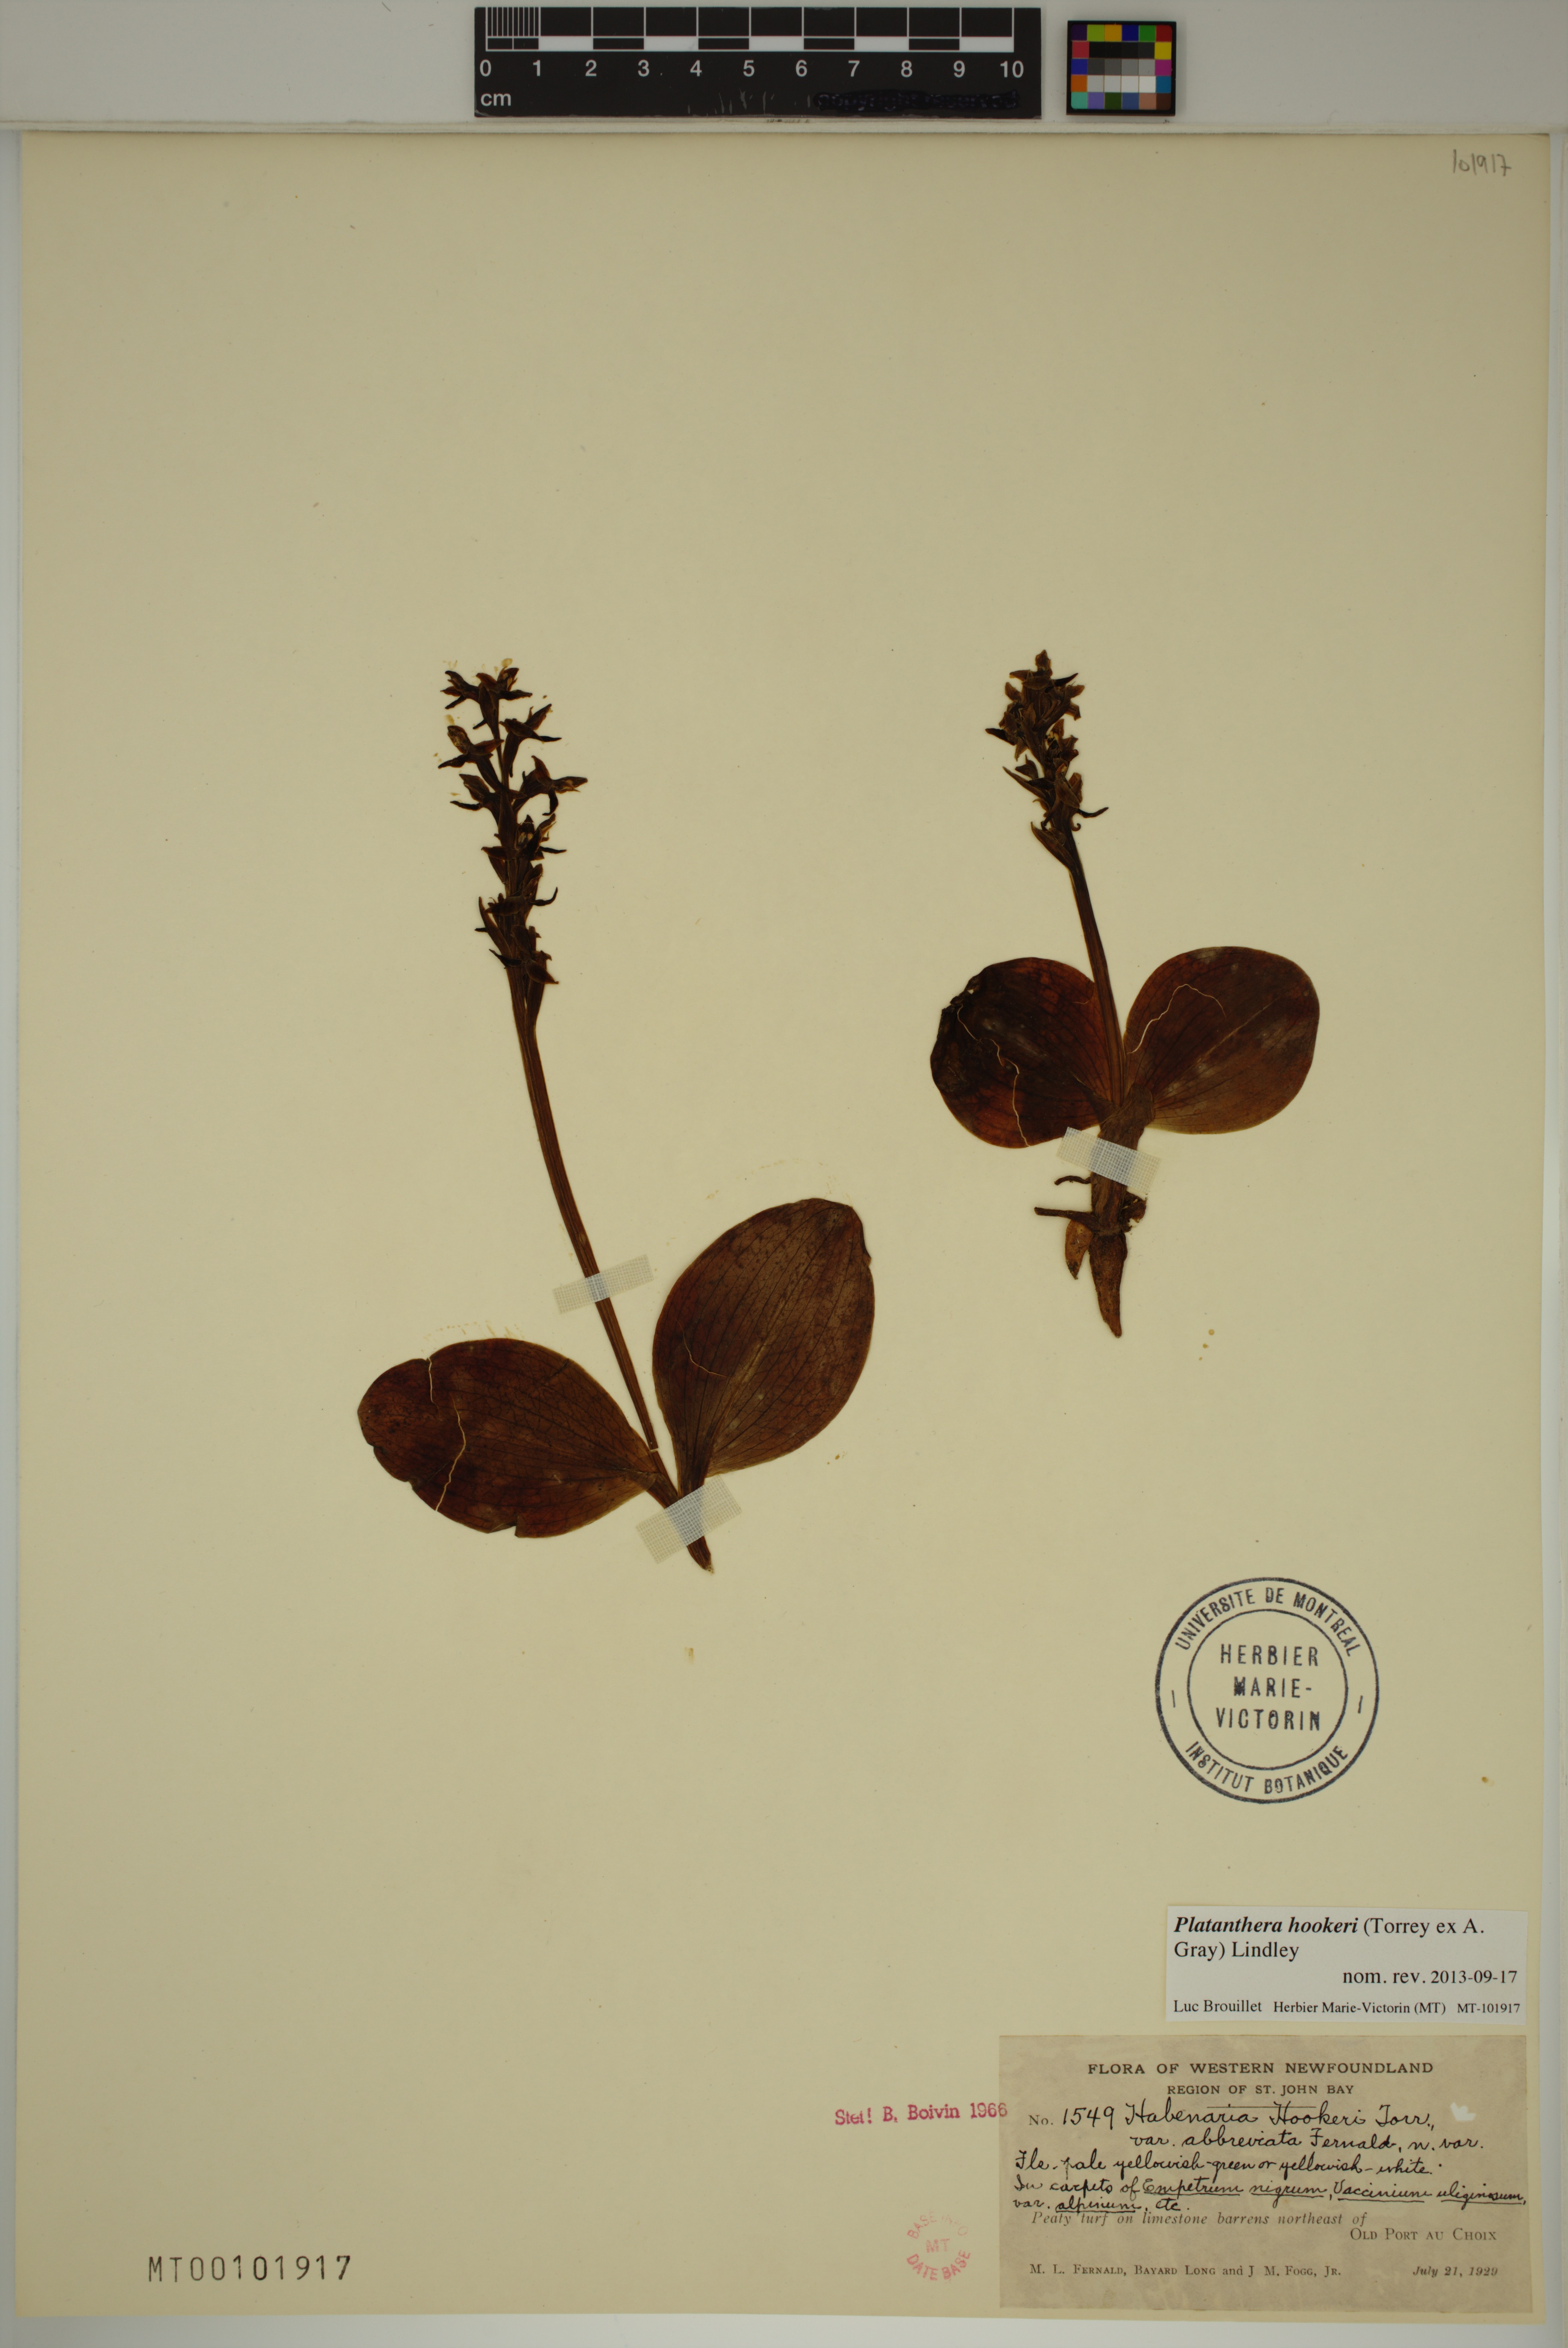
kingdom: Plantae
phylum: Tracheophyta
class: Liliopsida
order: Asparagales
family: Orchidaceae
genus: Platanthera
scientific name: Platanthera hookeri
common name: Hooker's orchid
